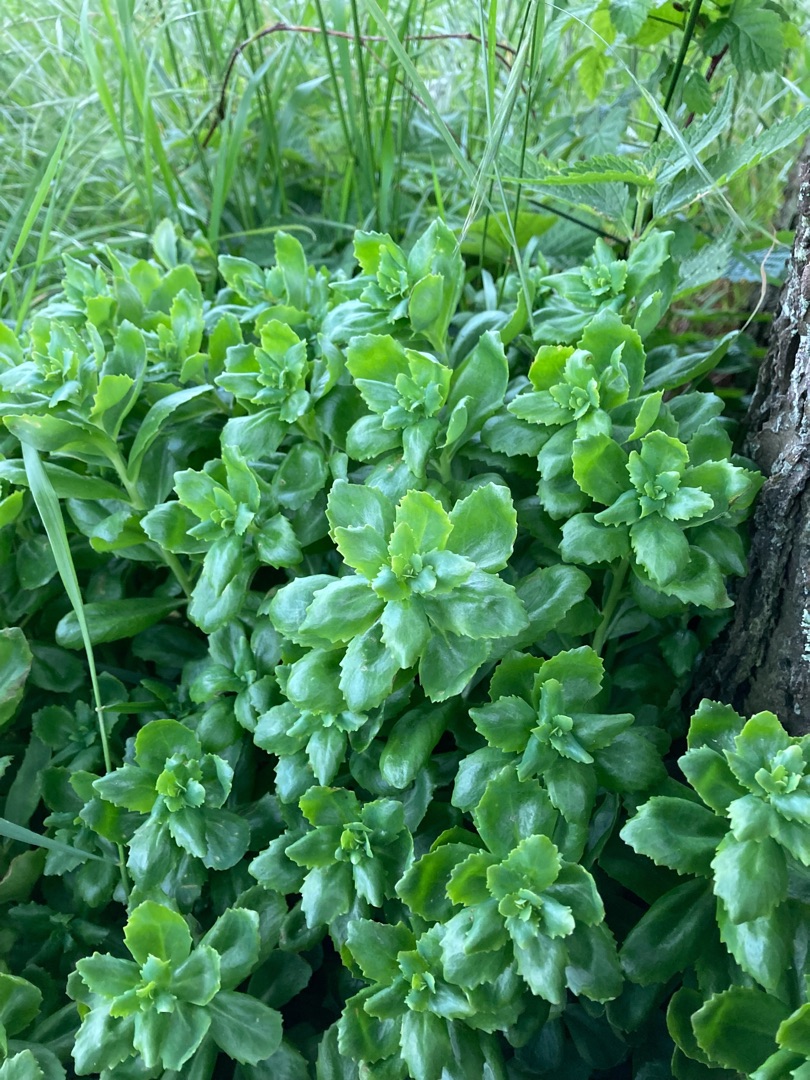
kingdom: Plantae
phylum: Tracheophyta
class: Magnoliopsida
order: Saxifragales
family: Crassulaceae
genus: Hylotelephium
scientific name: Hylotelephium telephium
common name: Sankthansurt
